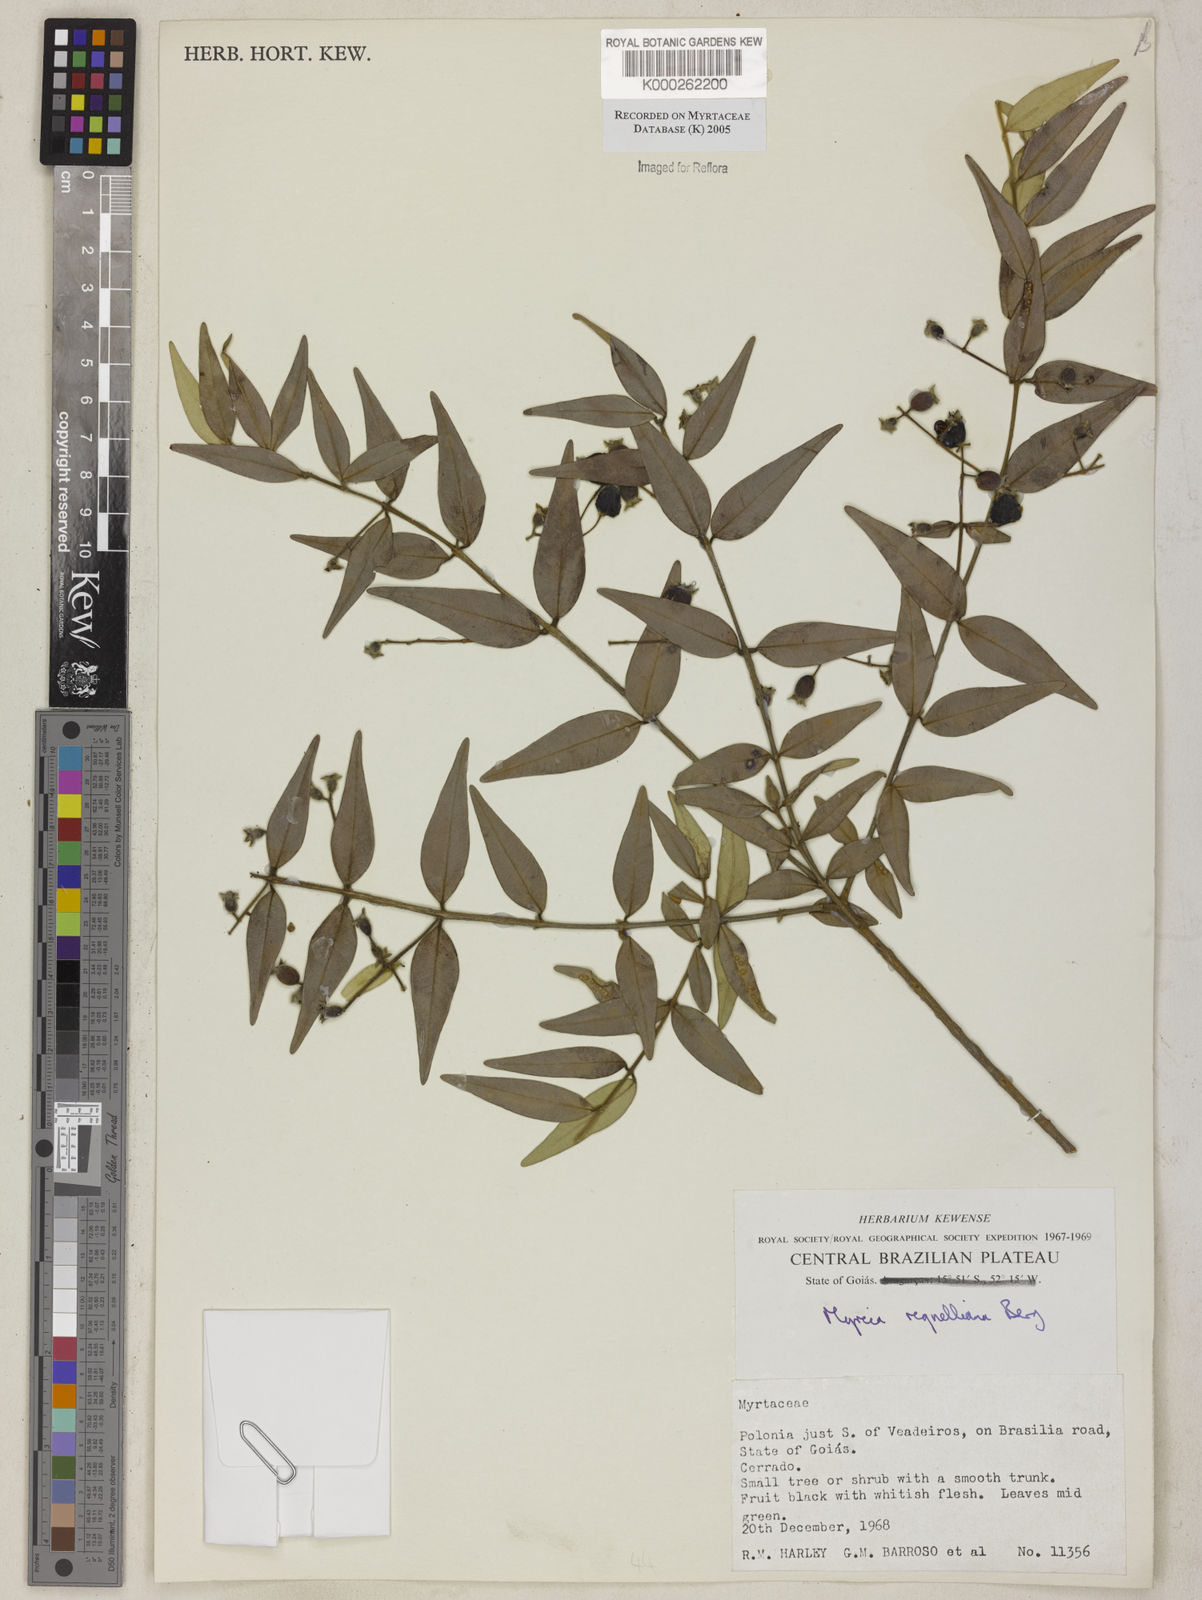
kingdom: Plantae
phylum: Tracheophyta
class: Magnoliopsida
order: Myrtales
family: Myrtaceae
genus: Myrcia
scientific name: Myrcia regnelliana
